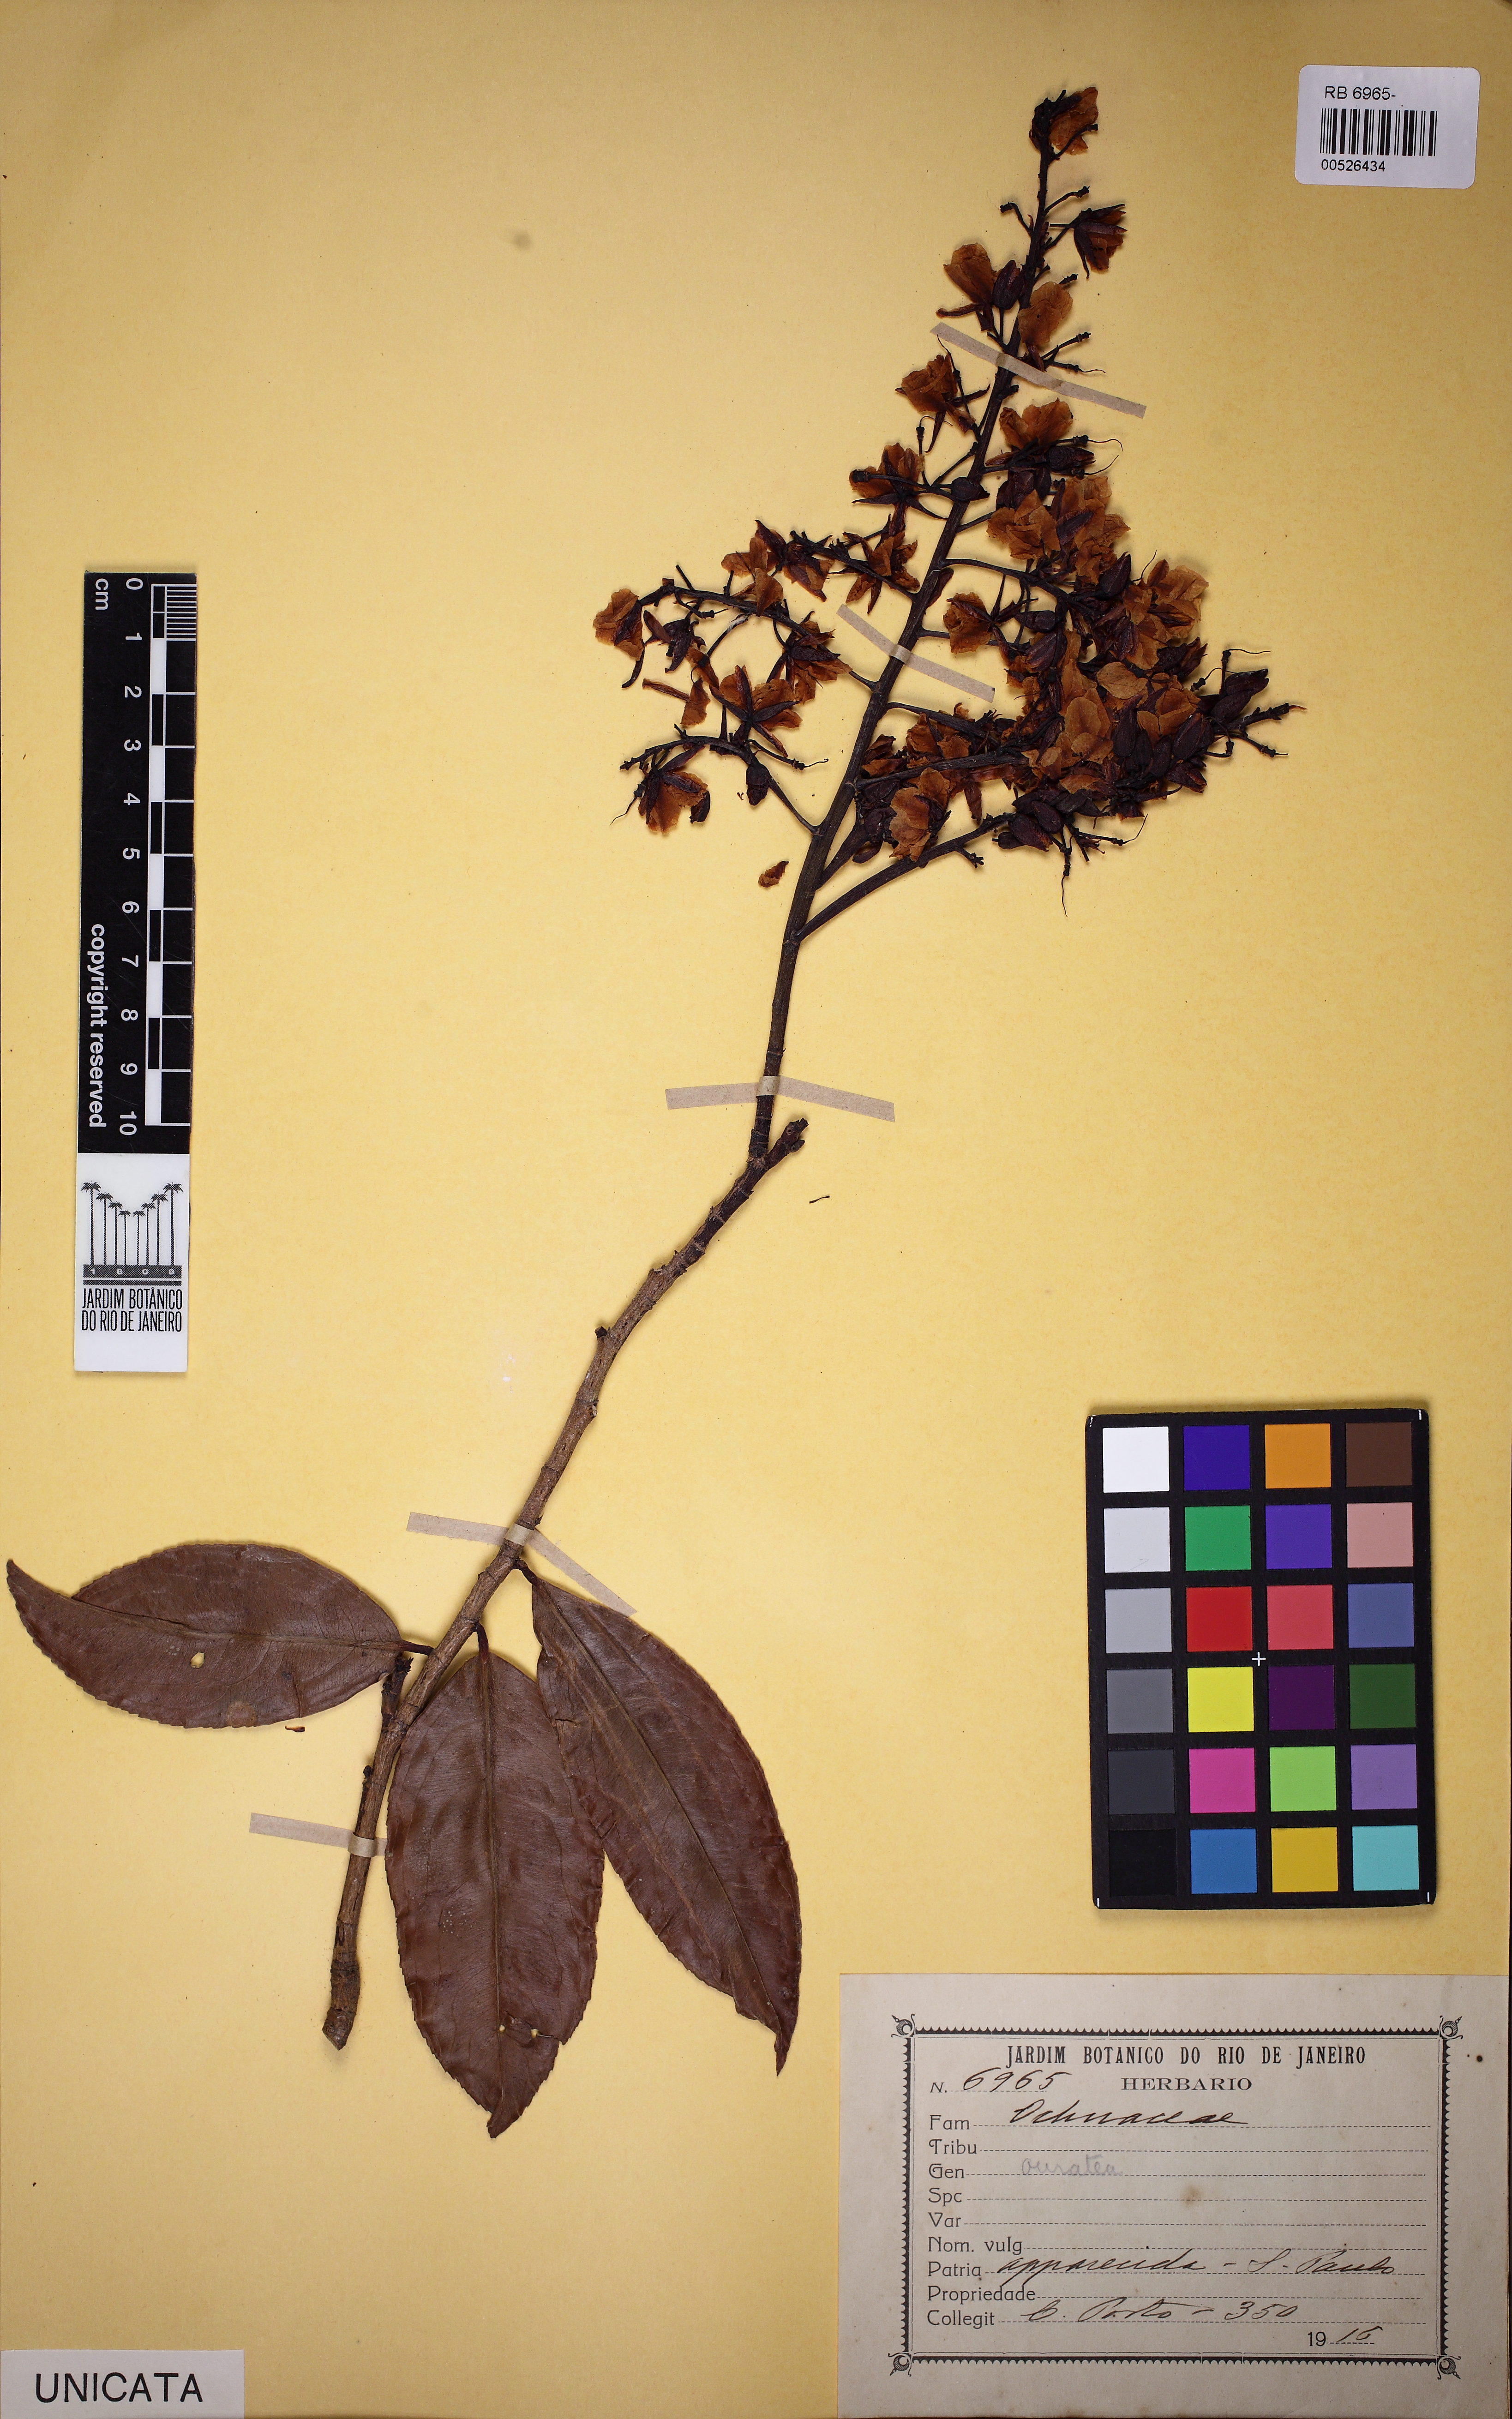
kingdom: Plantae
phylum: Tracheophyta
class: Magnoliopsida
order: Malpighiales
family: Ochnaceae
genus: Ouratea
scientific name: Ouratea
